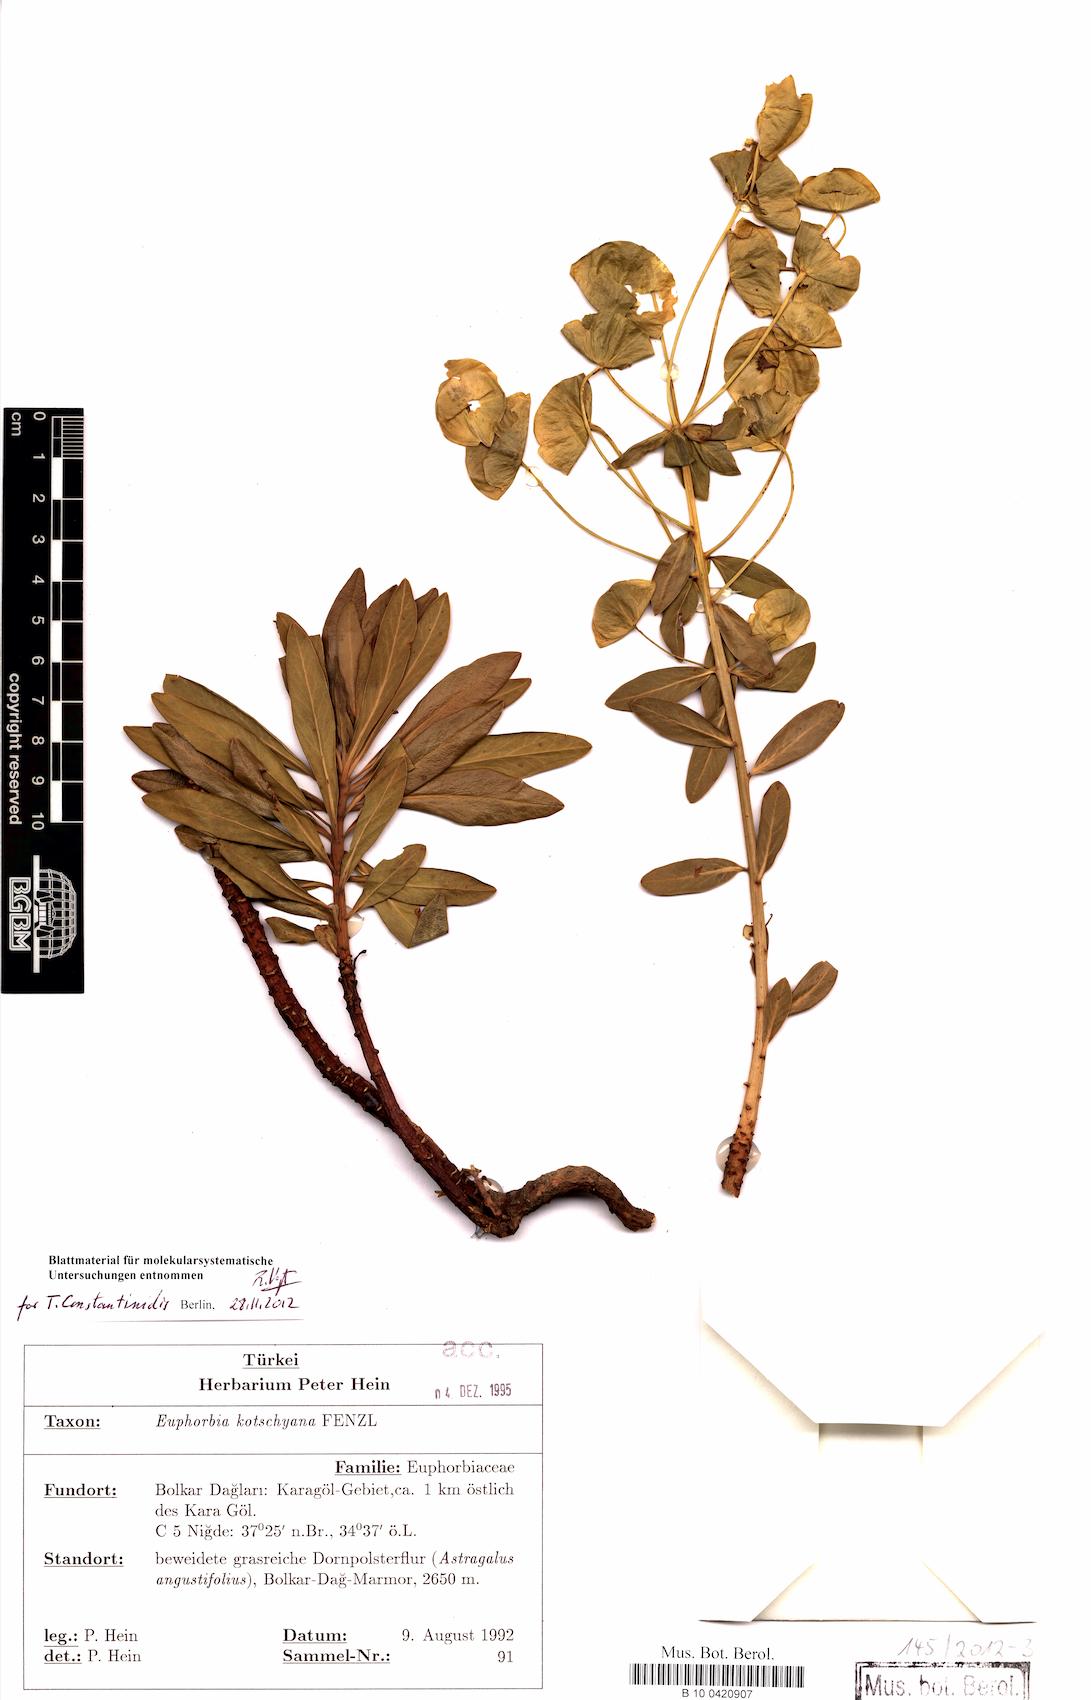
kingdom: Plantae
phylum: Tracheophyta
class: Magnoliopsida
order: Malpighiales
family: Euphorbiaceae
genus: Euphorbia
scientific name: Euphorbia kotschyana
